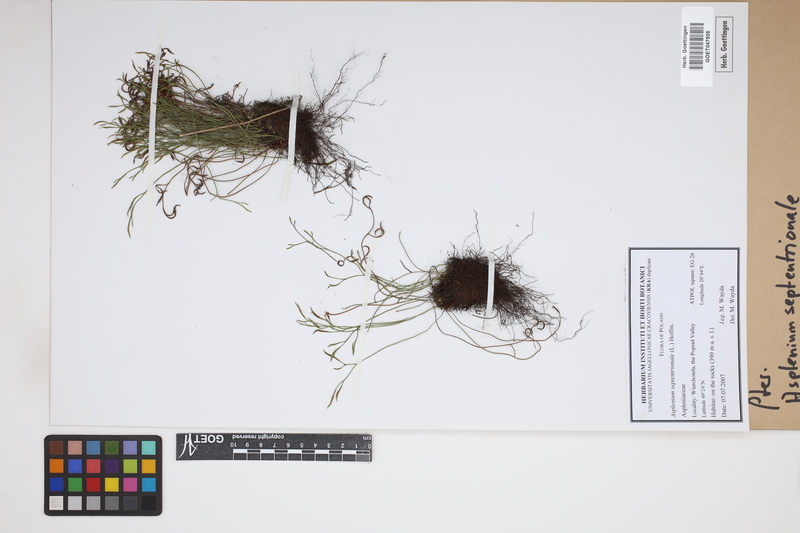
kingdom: Plantae
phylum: Tracheophyta
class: Polypodiopsida
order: Polypodiales
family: Aspleniaceae
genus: Asplenium
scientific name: Asplenium septentrionale
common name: Forked spleenwort
